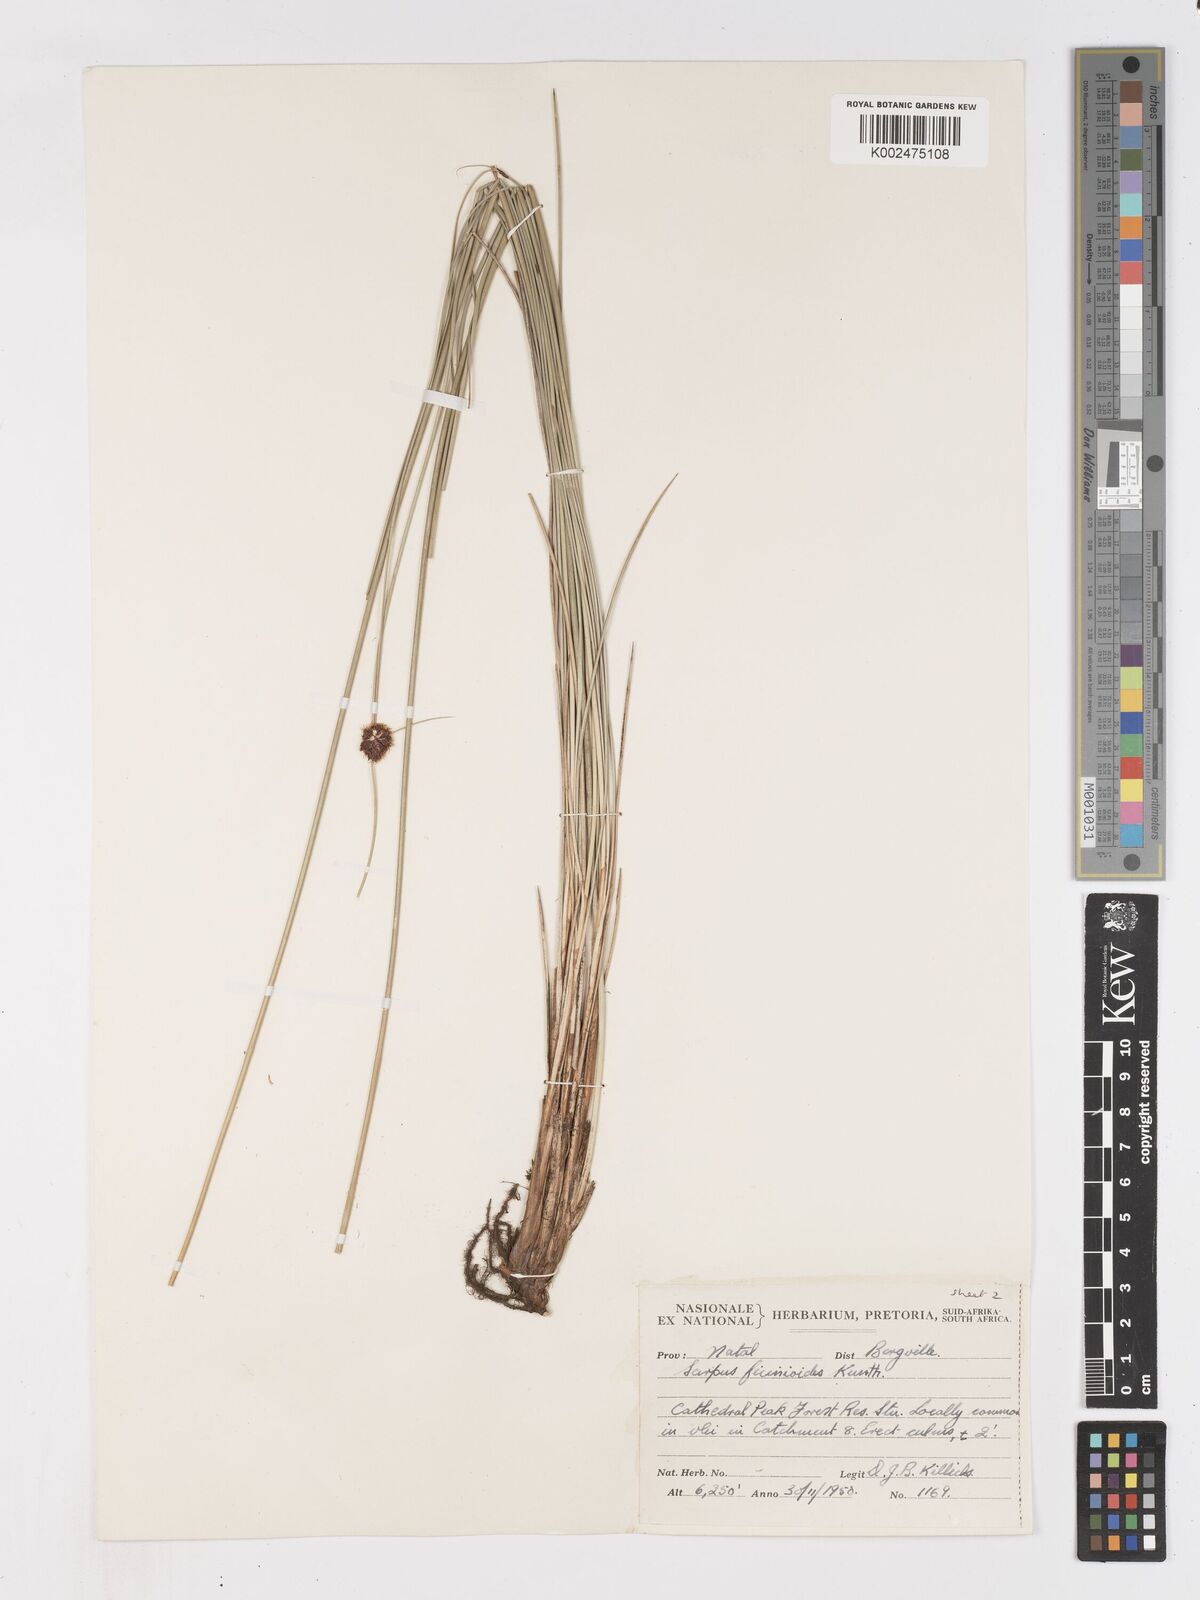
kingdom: Plantae
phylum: Tracheophyta
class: Liliopsida
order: Poales
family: Cyperaceae
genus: Ficinia
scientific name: Ficinia filiformis
